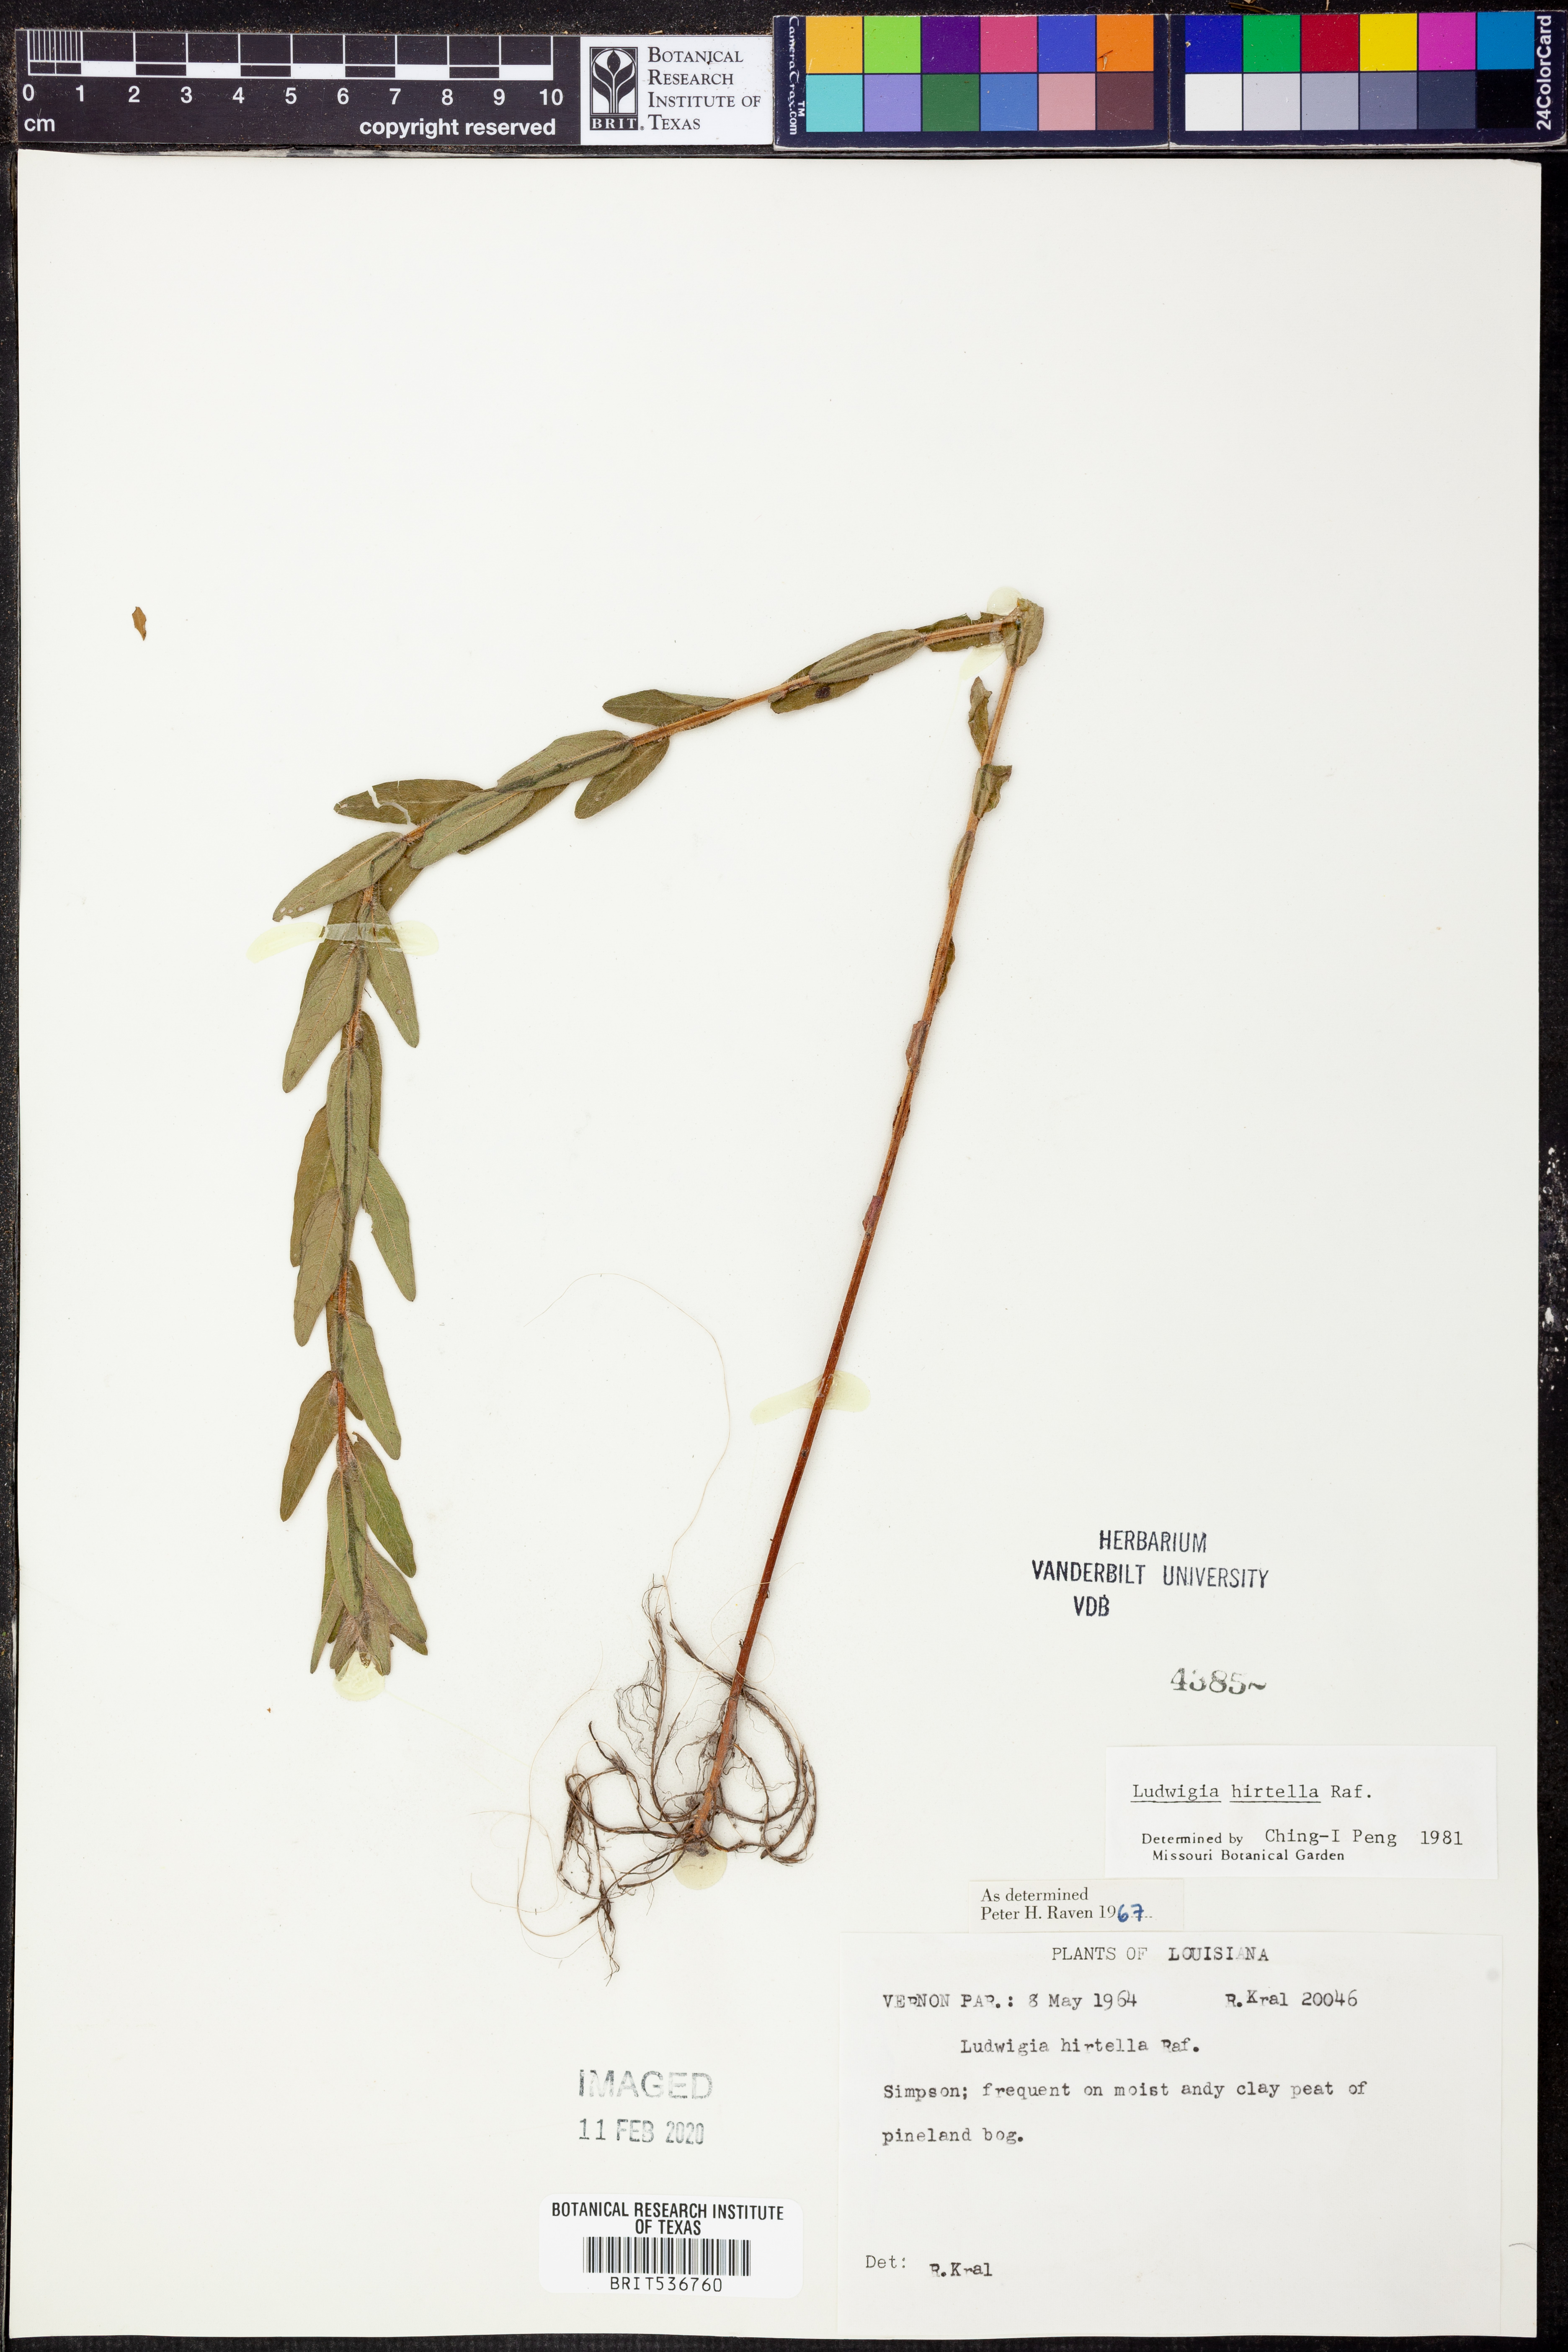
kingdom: Plantae
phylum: Tracheophyta
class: Magnoliopsida
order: Myrtales
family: Onagraceae
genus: Ludwigia
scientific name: Ludwigia hirtella
